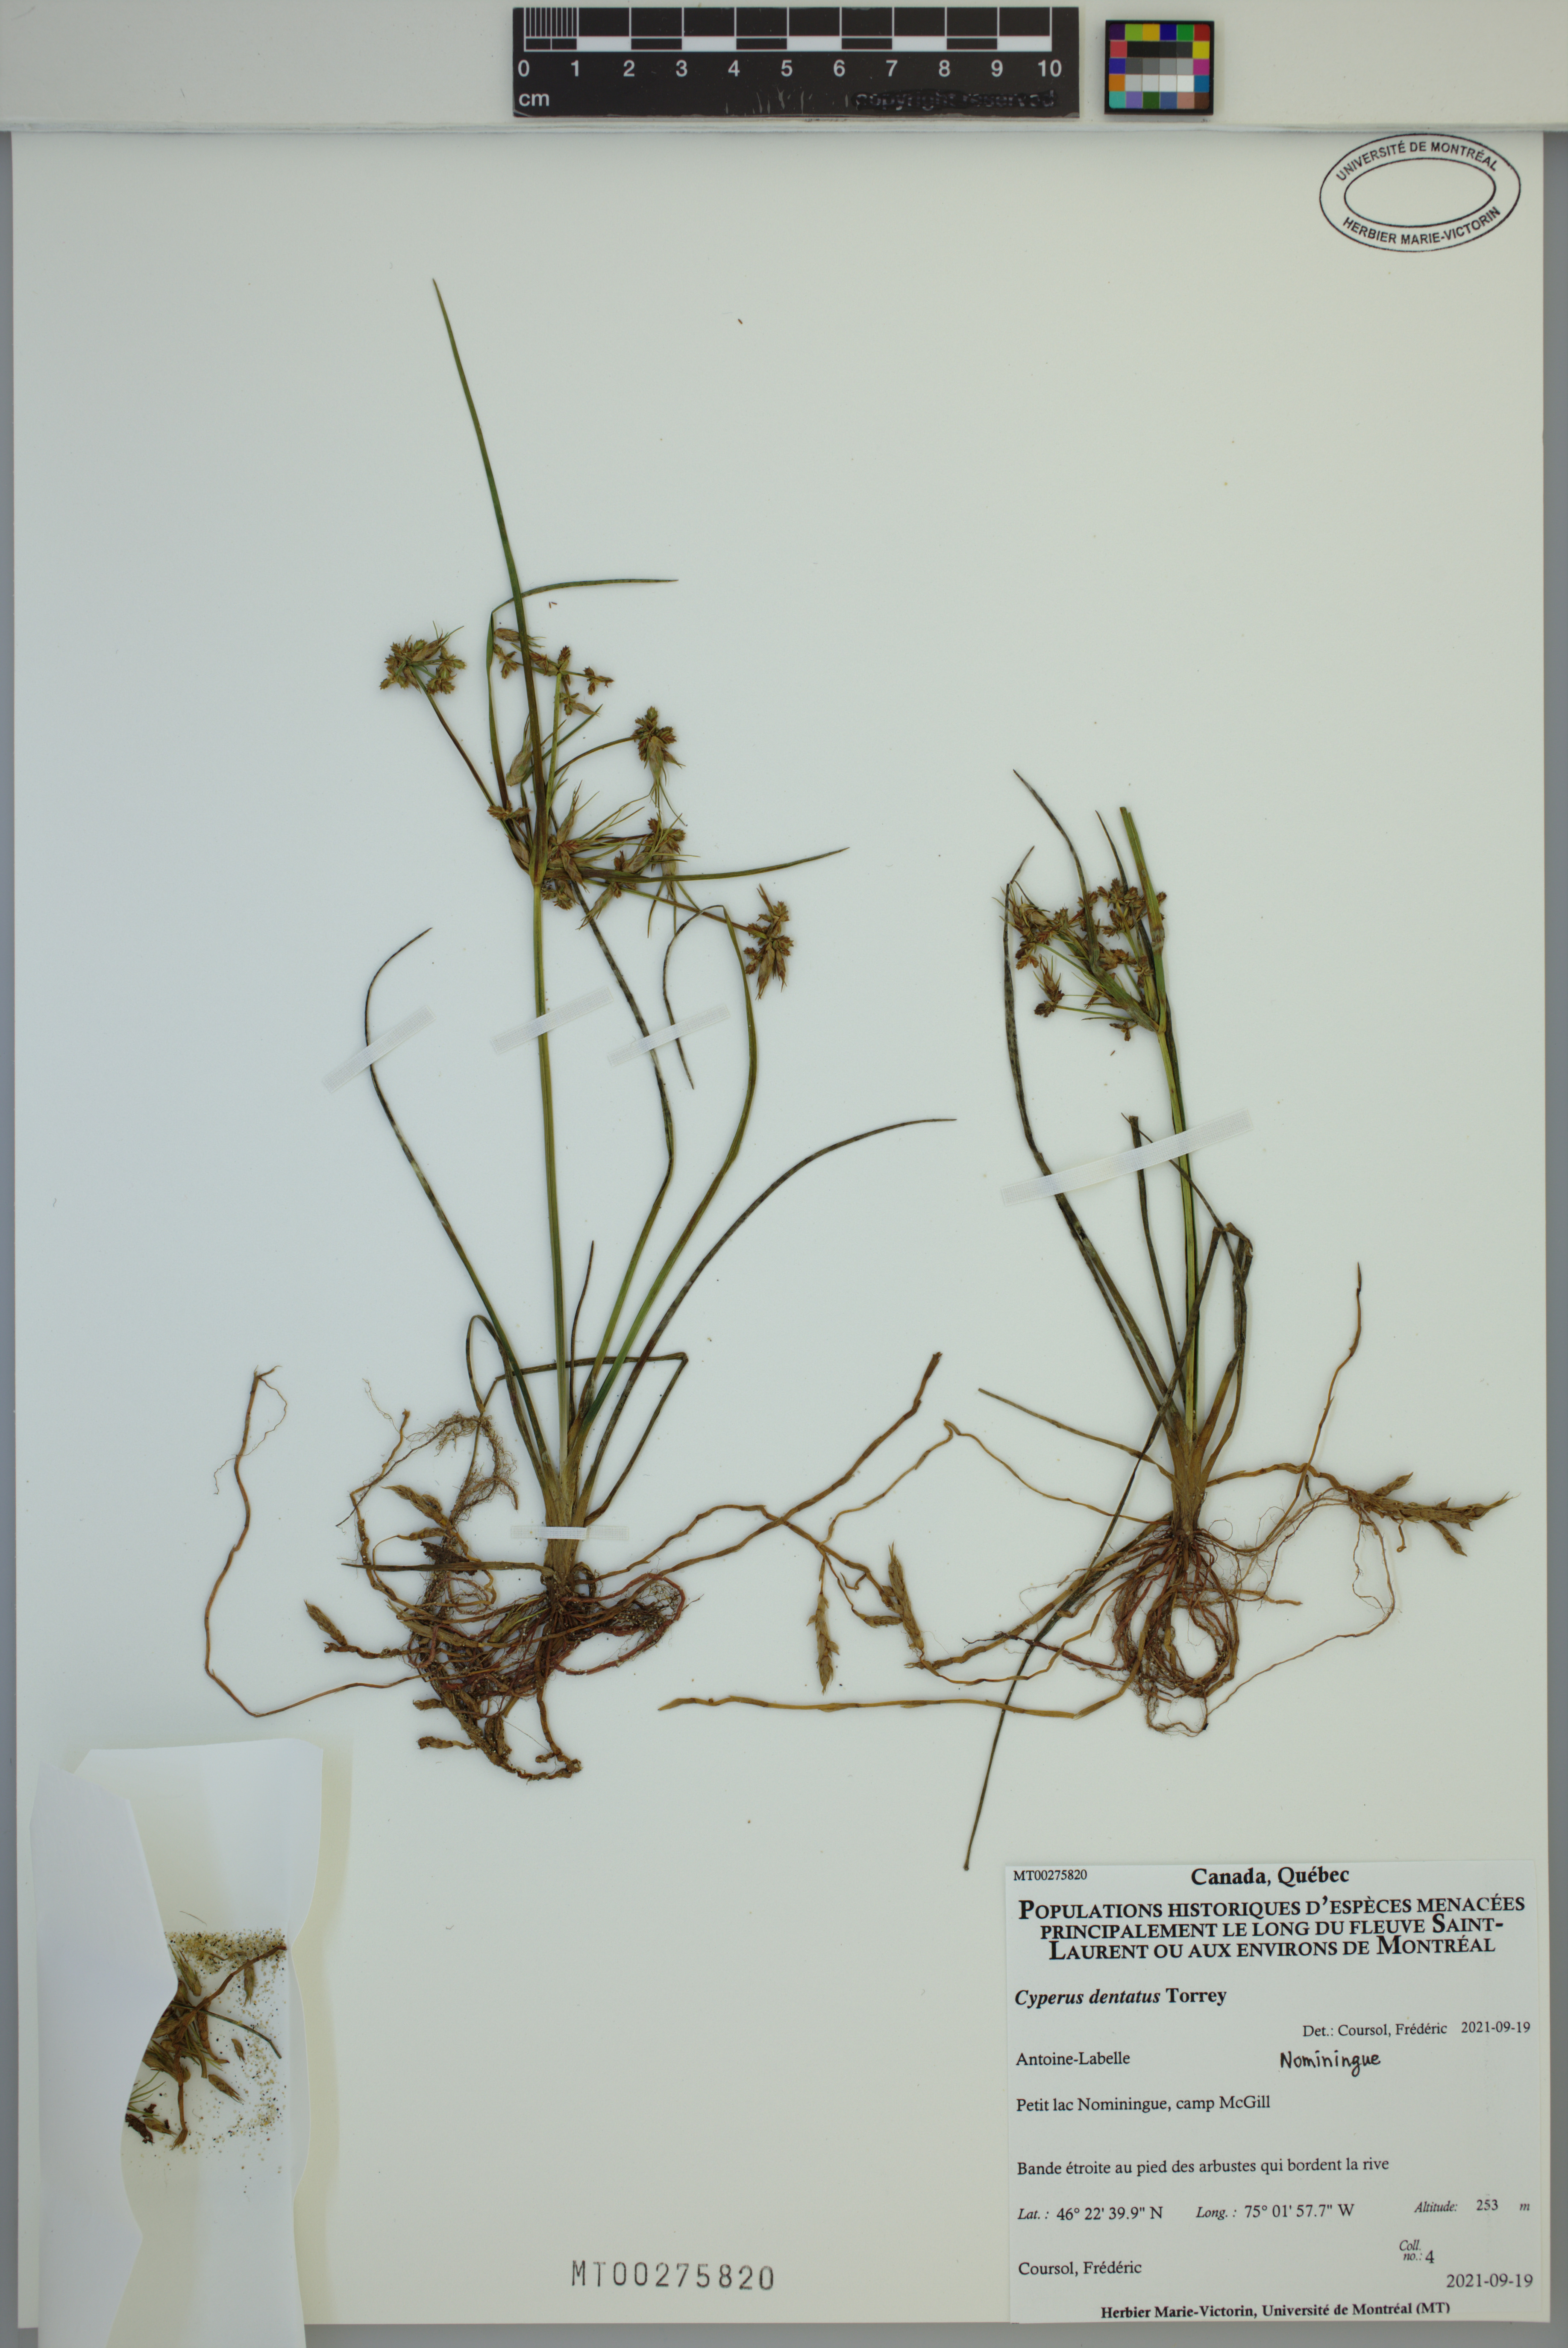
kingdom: Plantae
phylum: Tracheophyta
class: Liliopsida
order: Poales
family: Cyperaceae
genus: Cyperus
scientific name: Cyperus dentatus
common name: Dentate umbrella sedge
